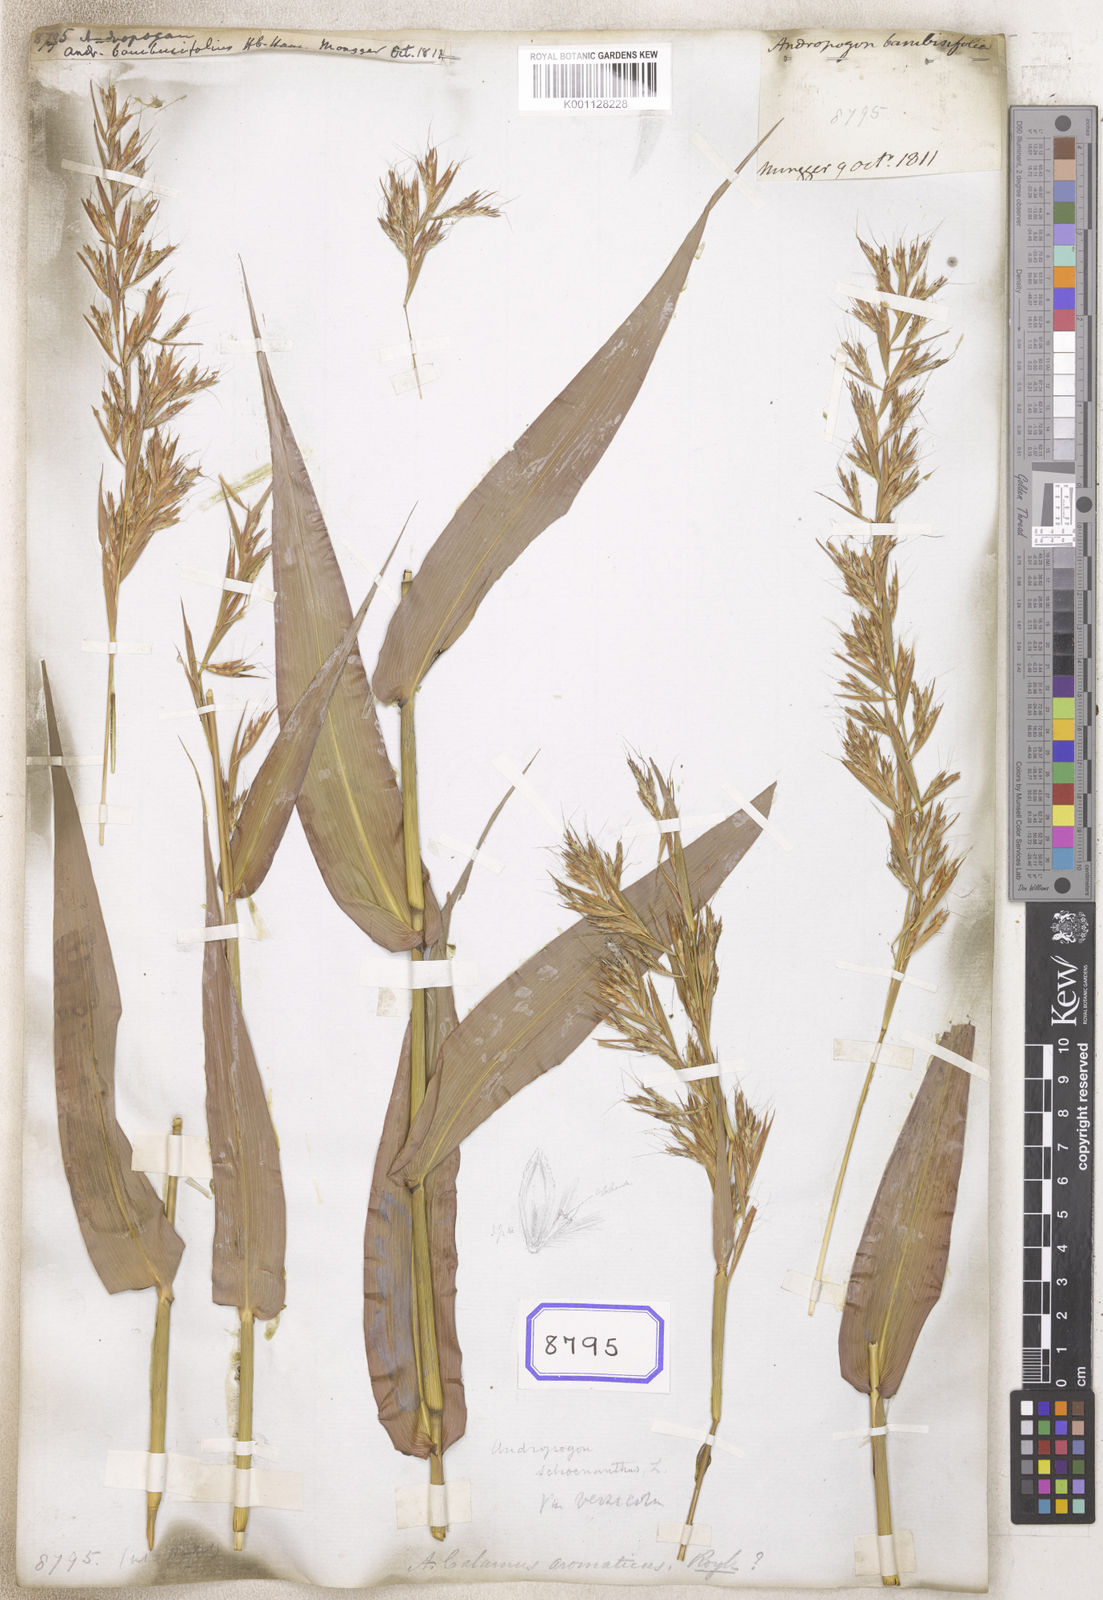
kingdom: Plantae
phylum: Tracheophyta
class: Liliopsida
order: Poales
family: Poaceae
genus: Andropogon
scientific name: Andropogon
